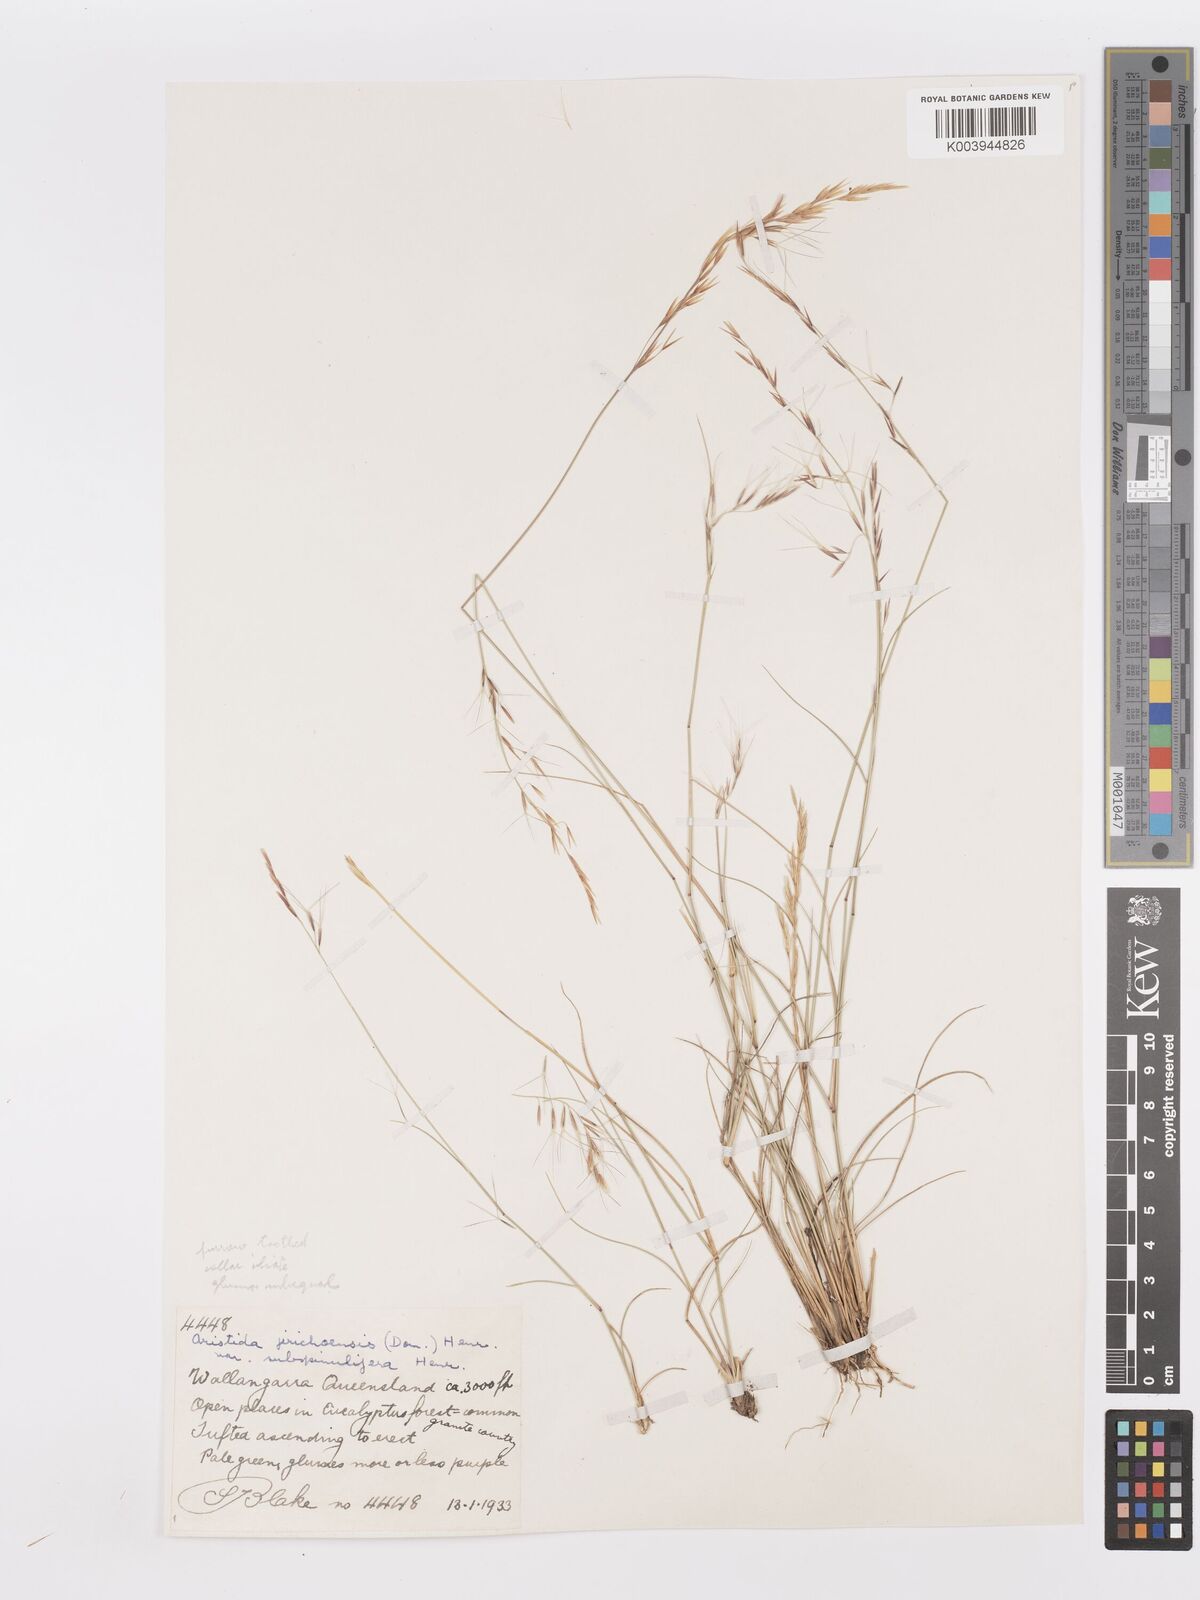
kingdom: Plantae
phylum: Tracheophyta
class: Liliopsida
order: Poales
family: Poaceae
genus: Aristida
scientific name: Aristida jerichoensis
